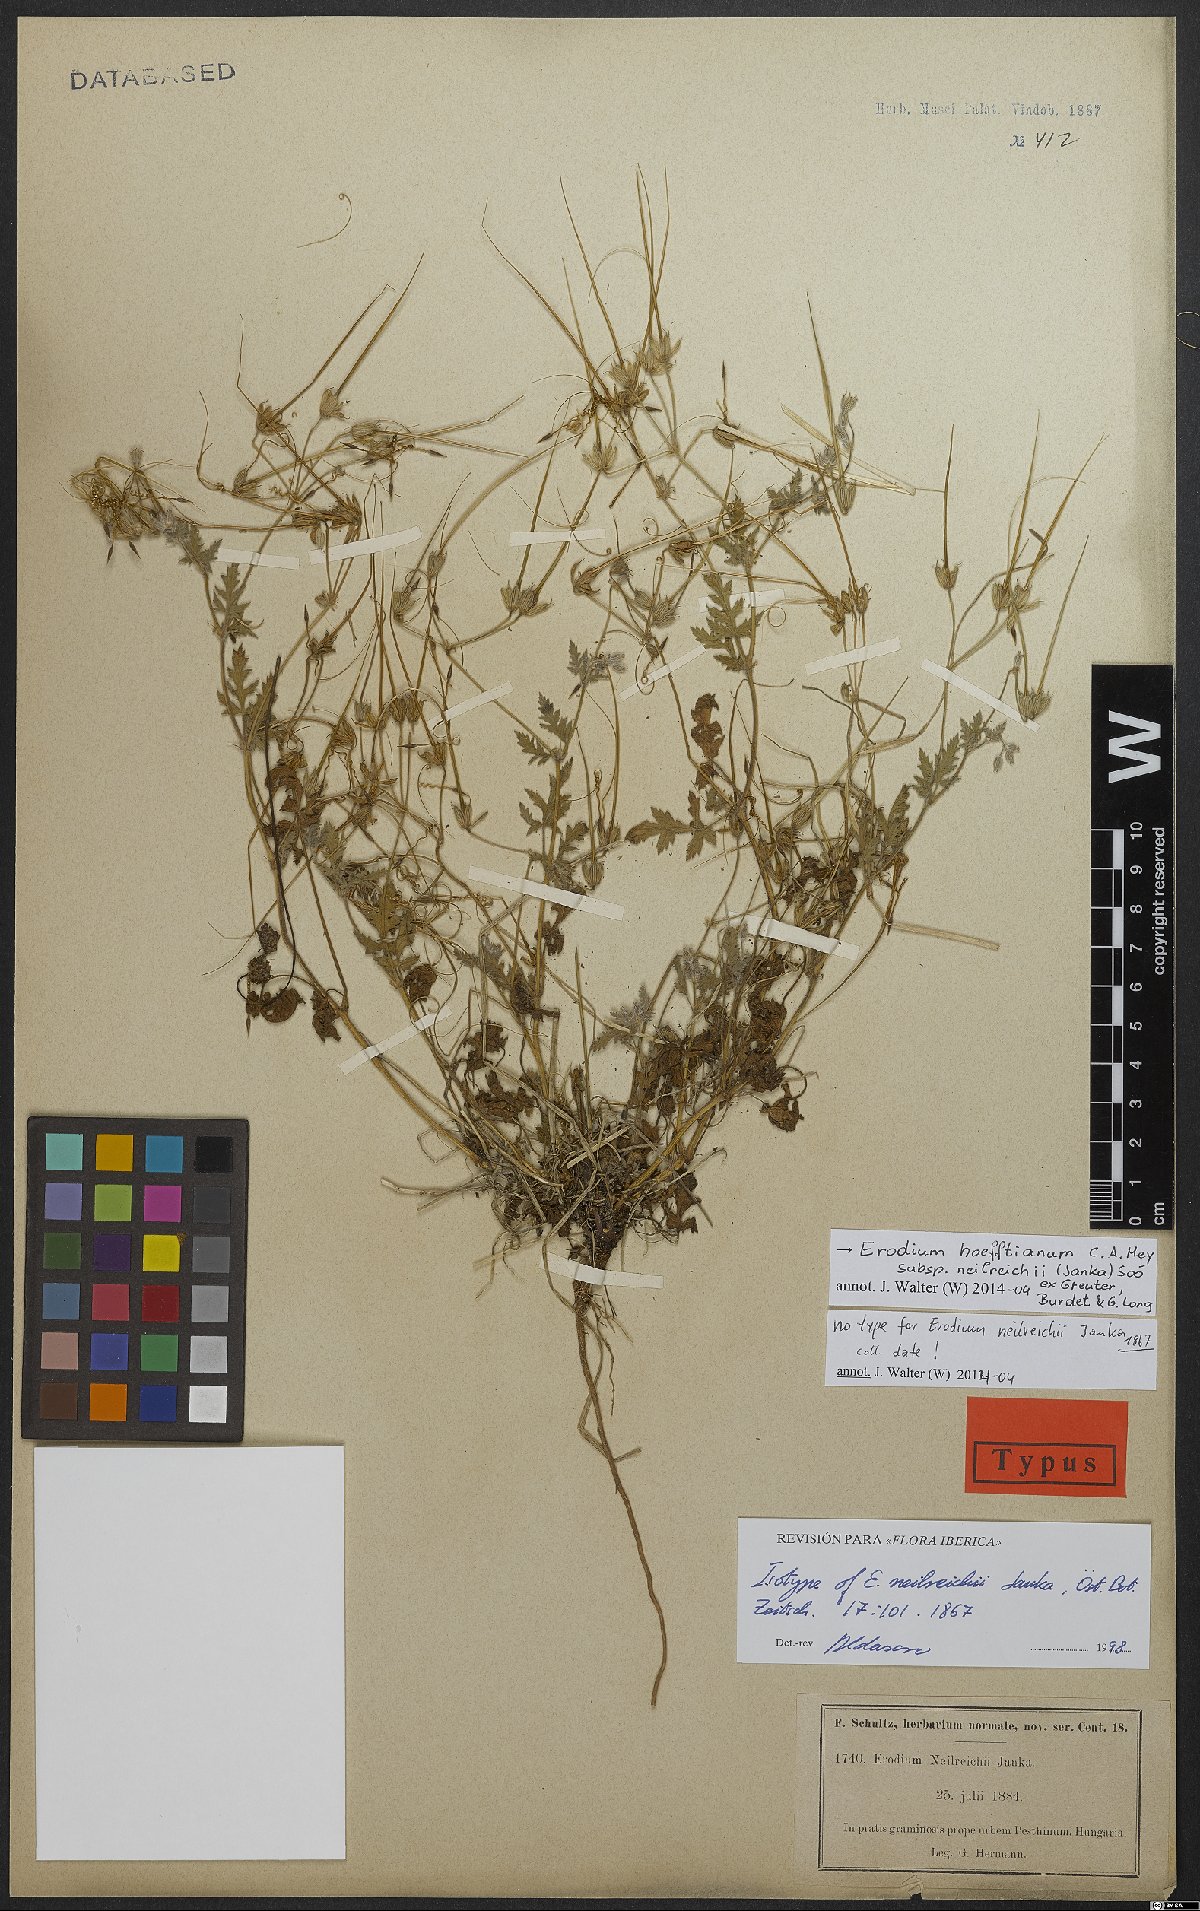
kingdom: Plantae
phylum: Tracheophyta
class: Magnoliopsida
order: Geraniales
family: Geraniaceae
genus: Erodium
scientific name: Erodium hoefftianum
